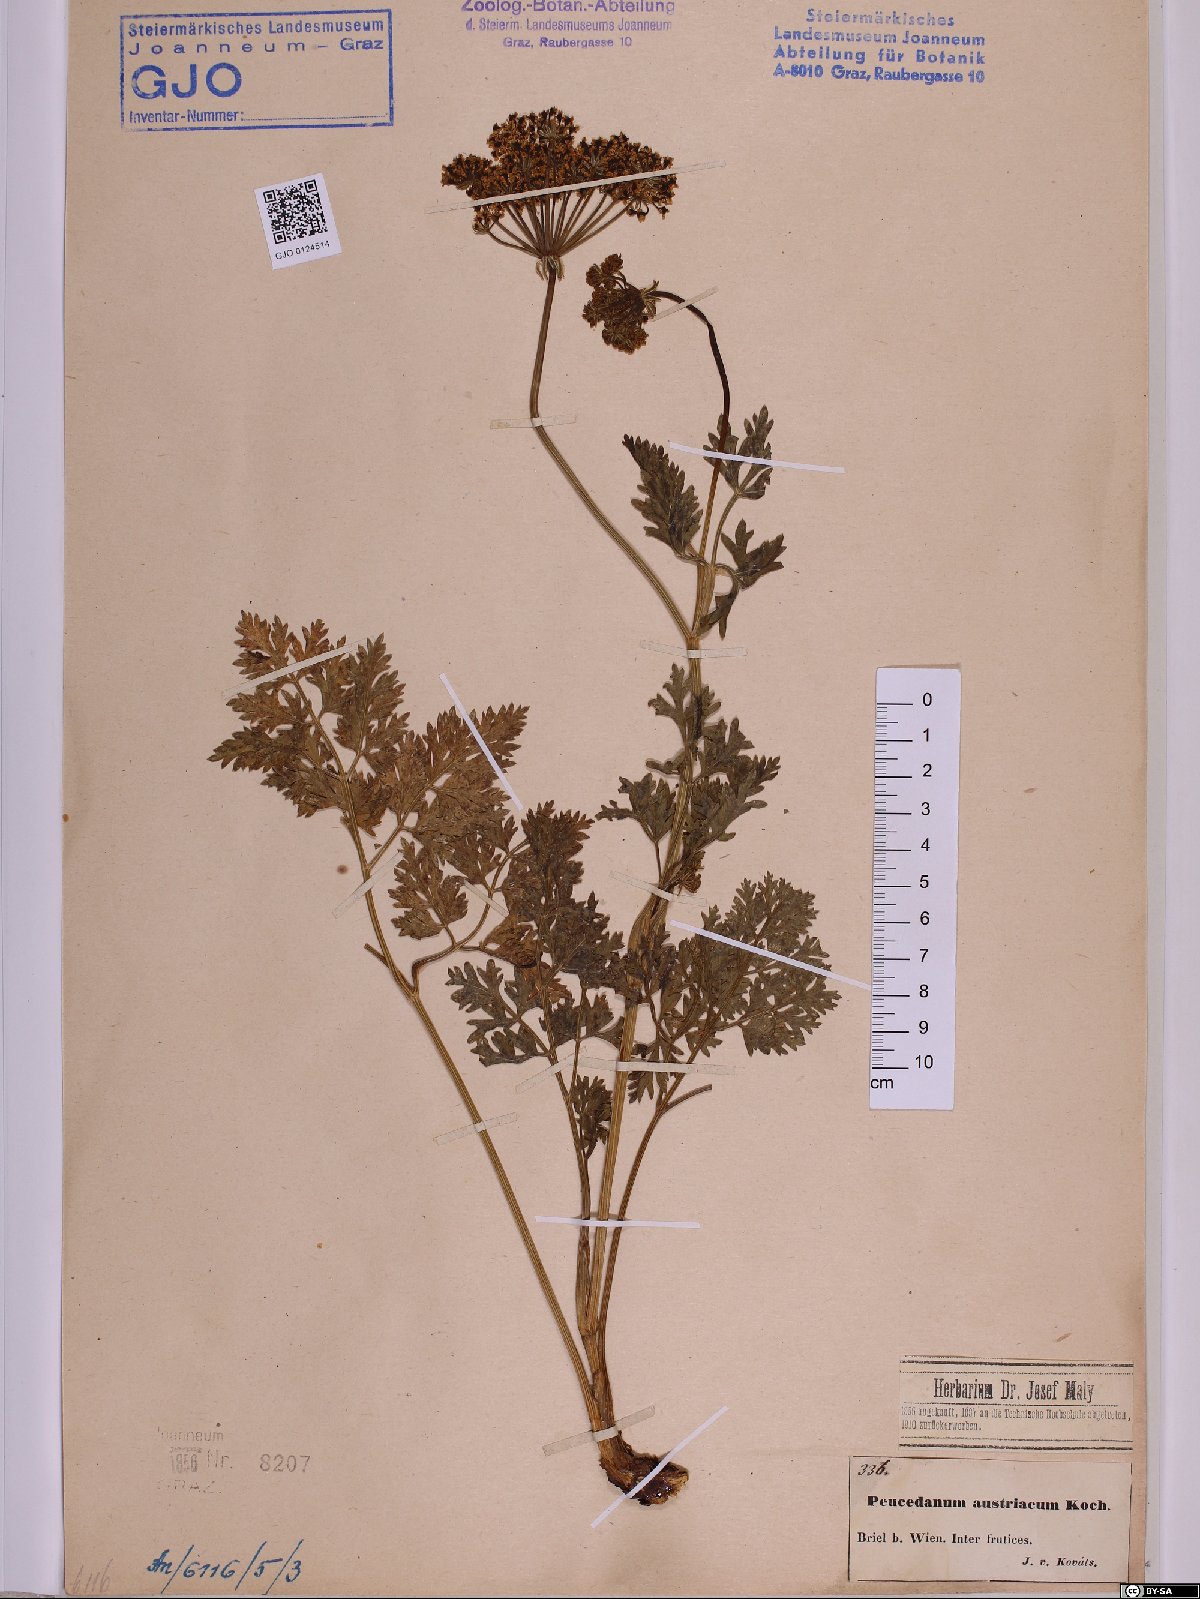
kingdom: Plantae
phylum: Tracheophyta
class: Magnoliopsida
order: Apiales
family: Apiaceae
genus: Peucedanum
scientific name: Peucedanum austriacum
